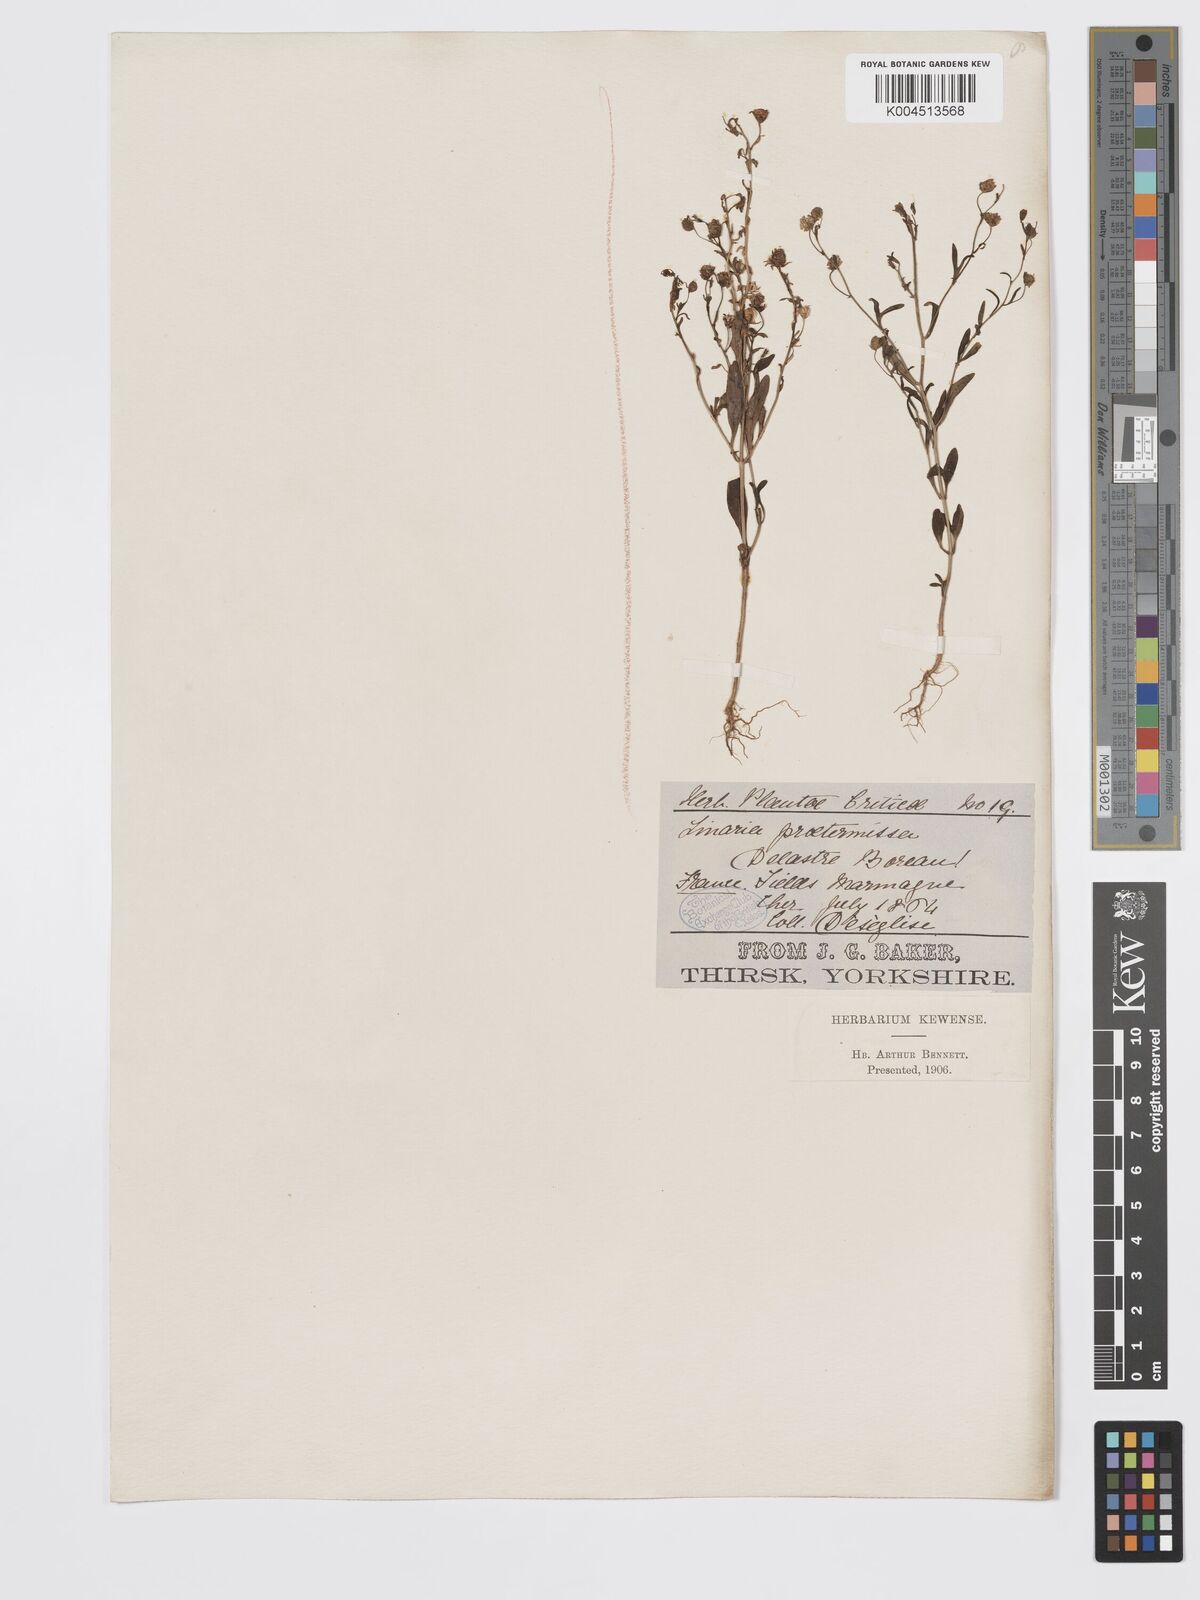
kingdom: Plantae
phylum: Tracheophyta
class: Magnoliopsida
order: Lamiales
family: Plantaginaceae
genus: Chaenorhinum
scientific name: Chaenorhinum minus
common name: Dwarf snapdragon
